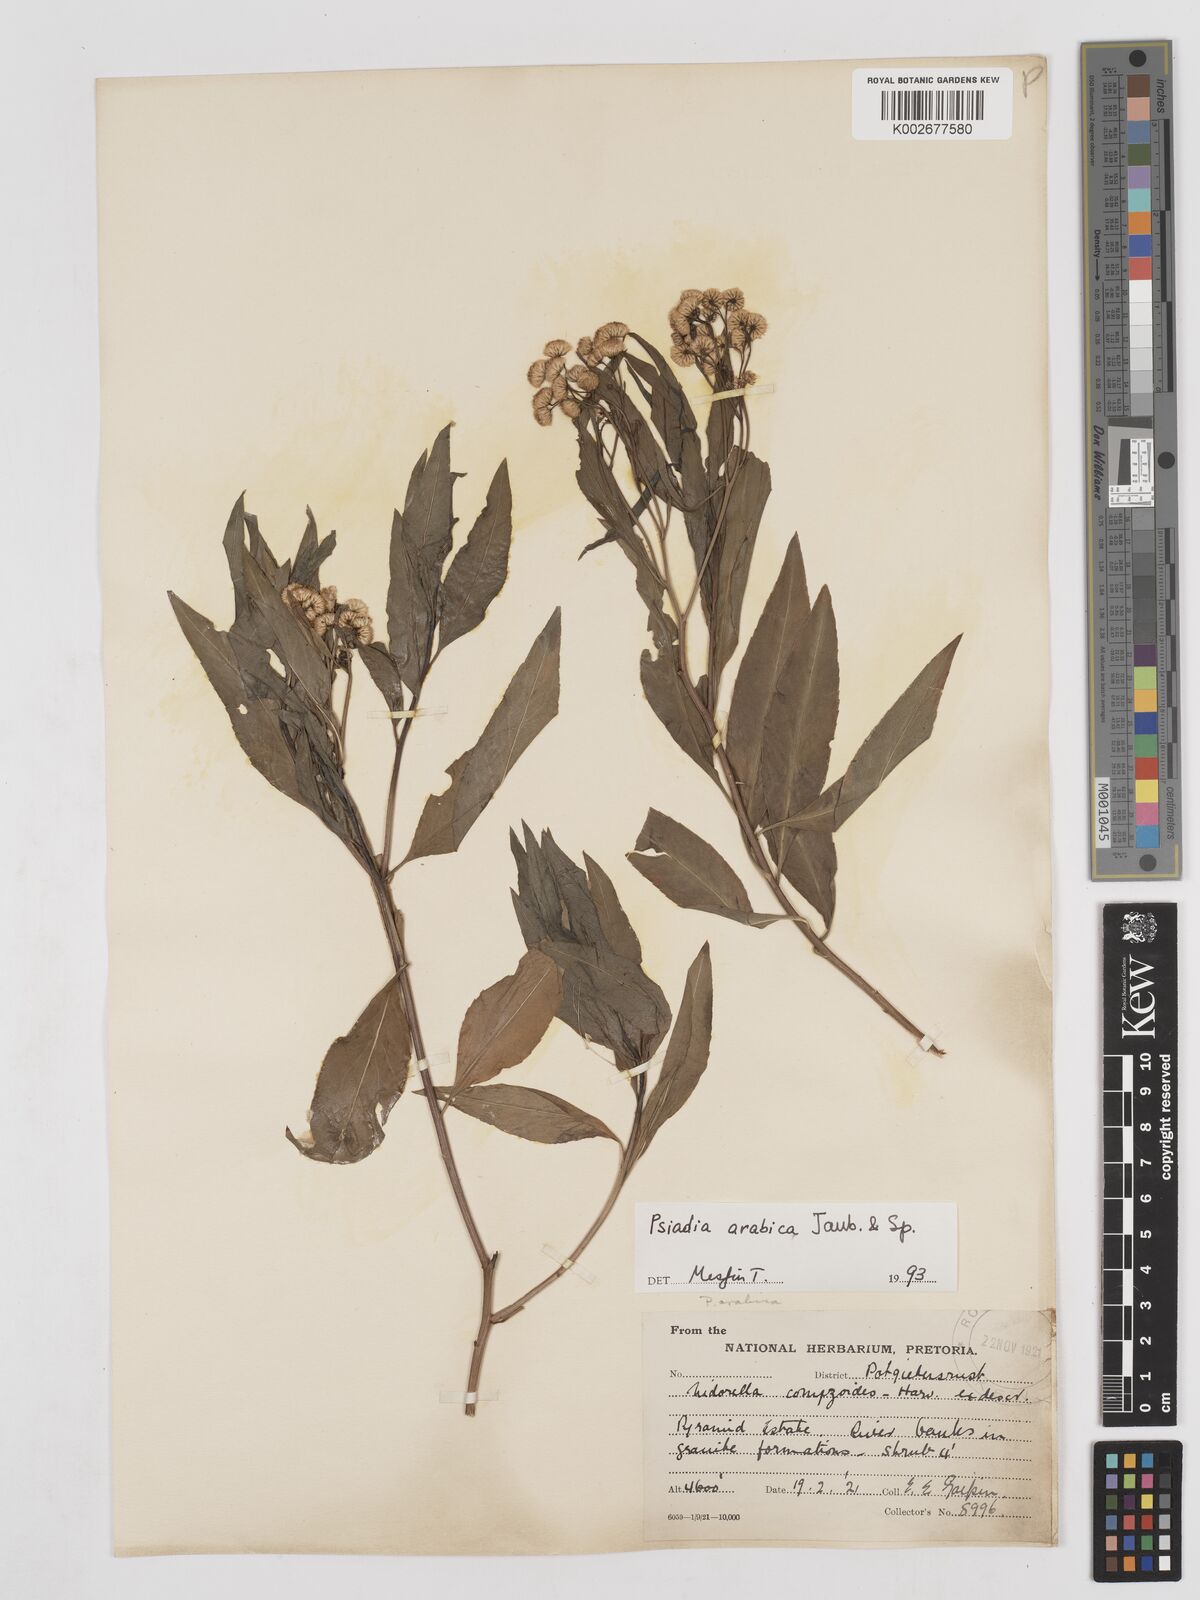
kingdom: Plantae
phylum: Tracheophyta
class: Magnoliopsida
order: Asterales
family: Asteraceae
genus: Psiadia
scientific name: Psiadia punctulata
